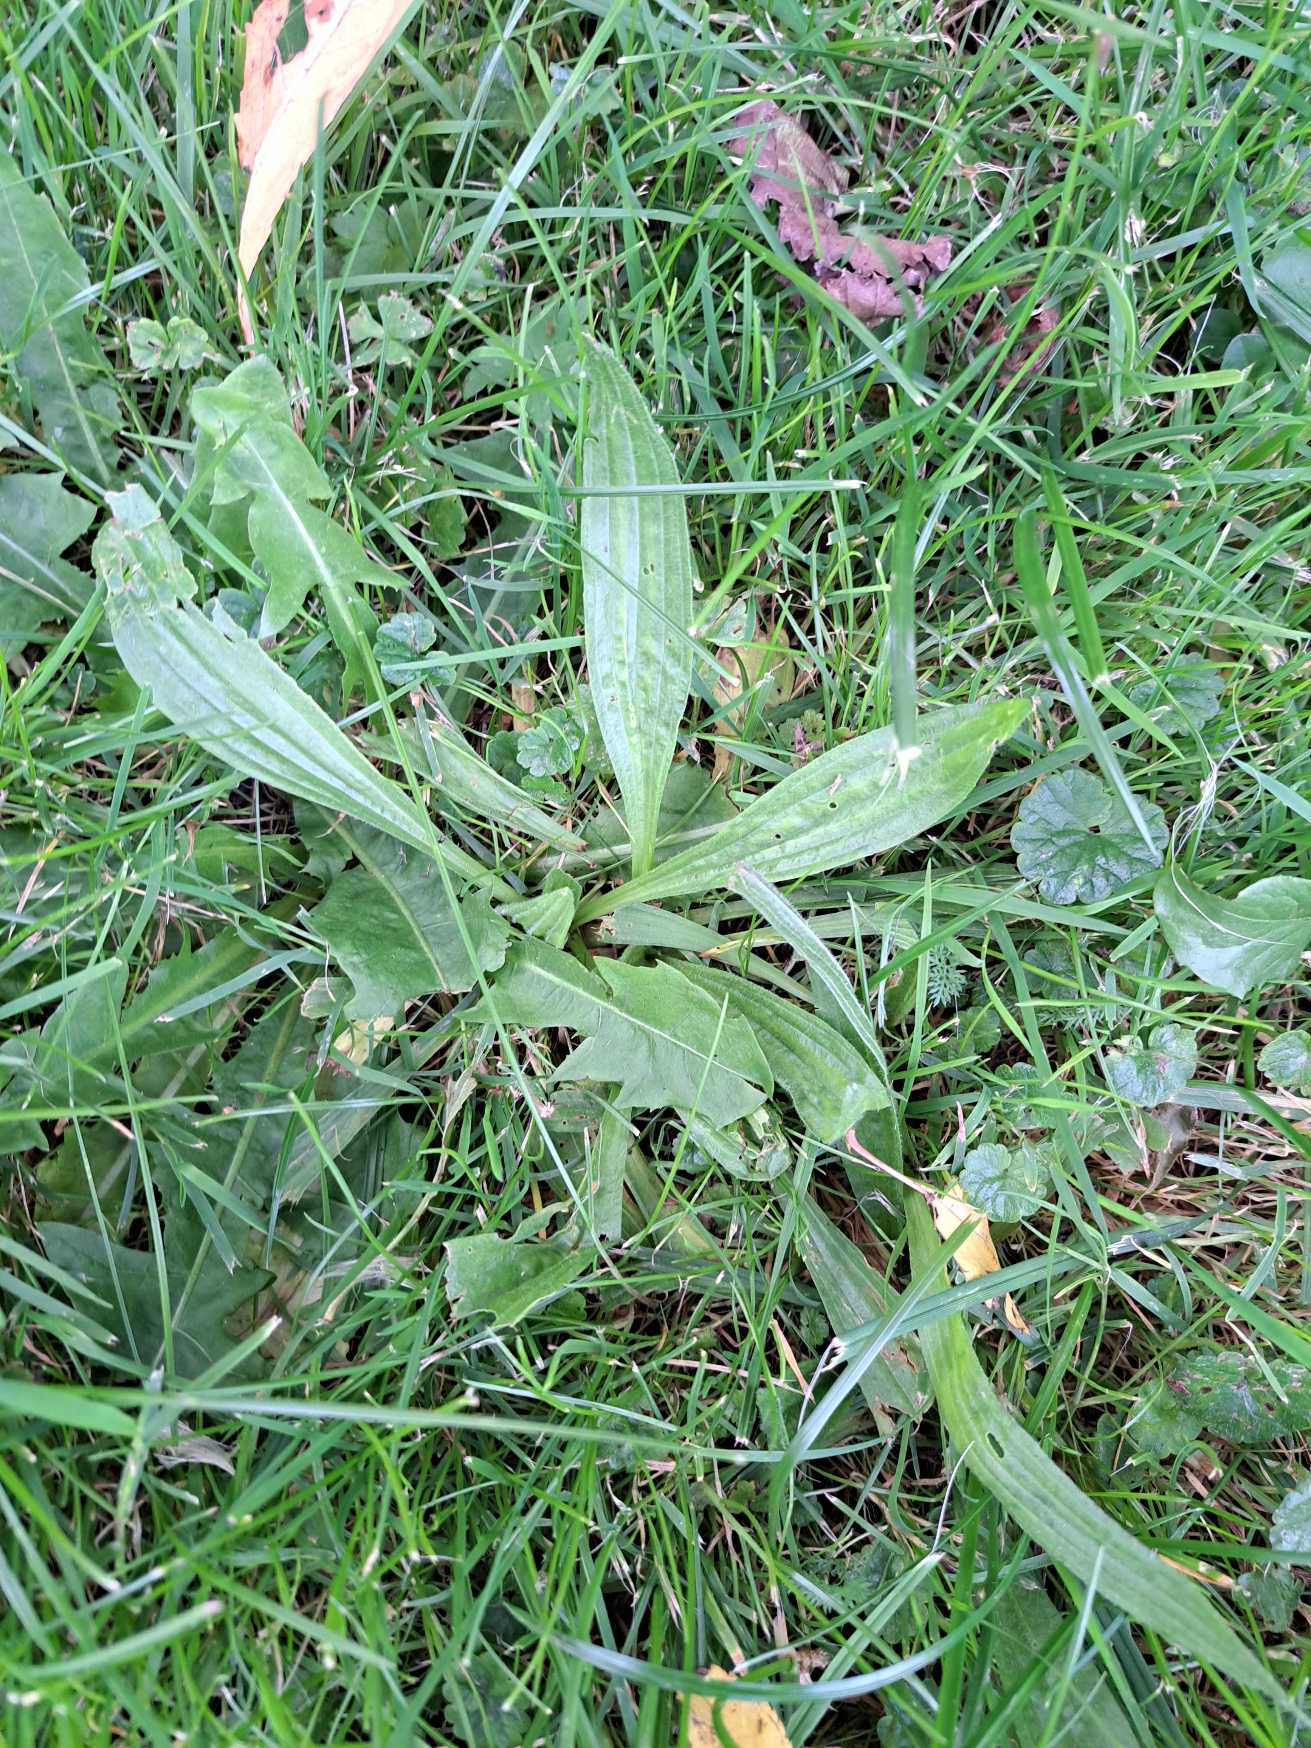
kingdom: Plantae
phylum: Tracheophyta
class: Magnoliopsida
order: Lamiales
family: Plantaginaceae
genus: Plantago
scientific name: Plantago lanceolata
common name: Lancet-vejbred
